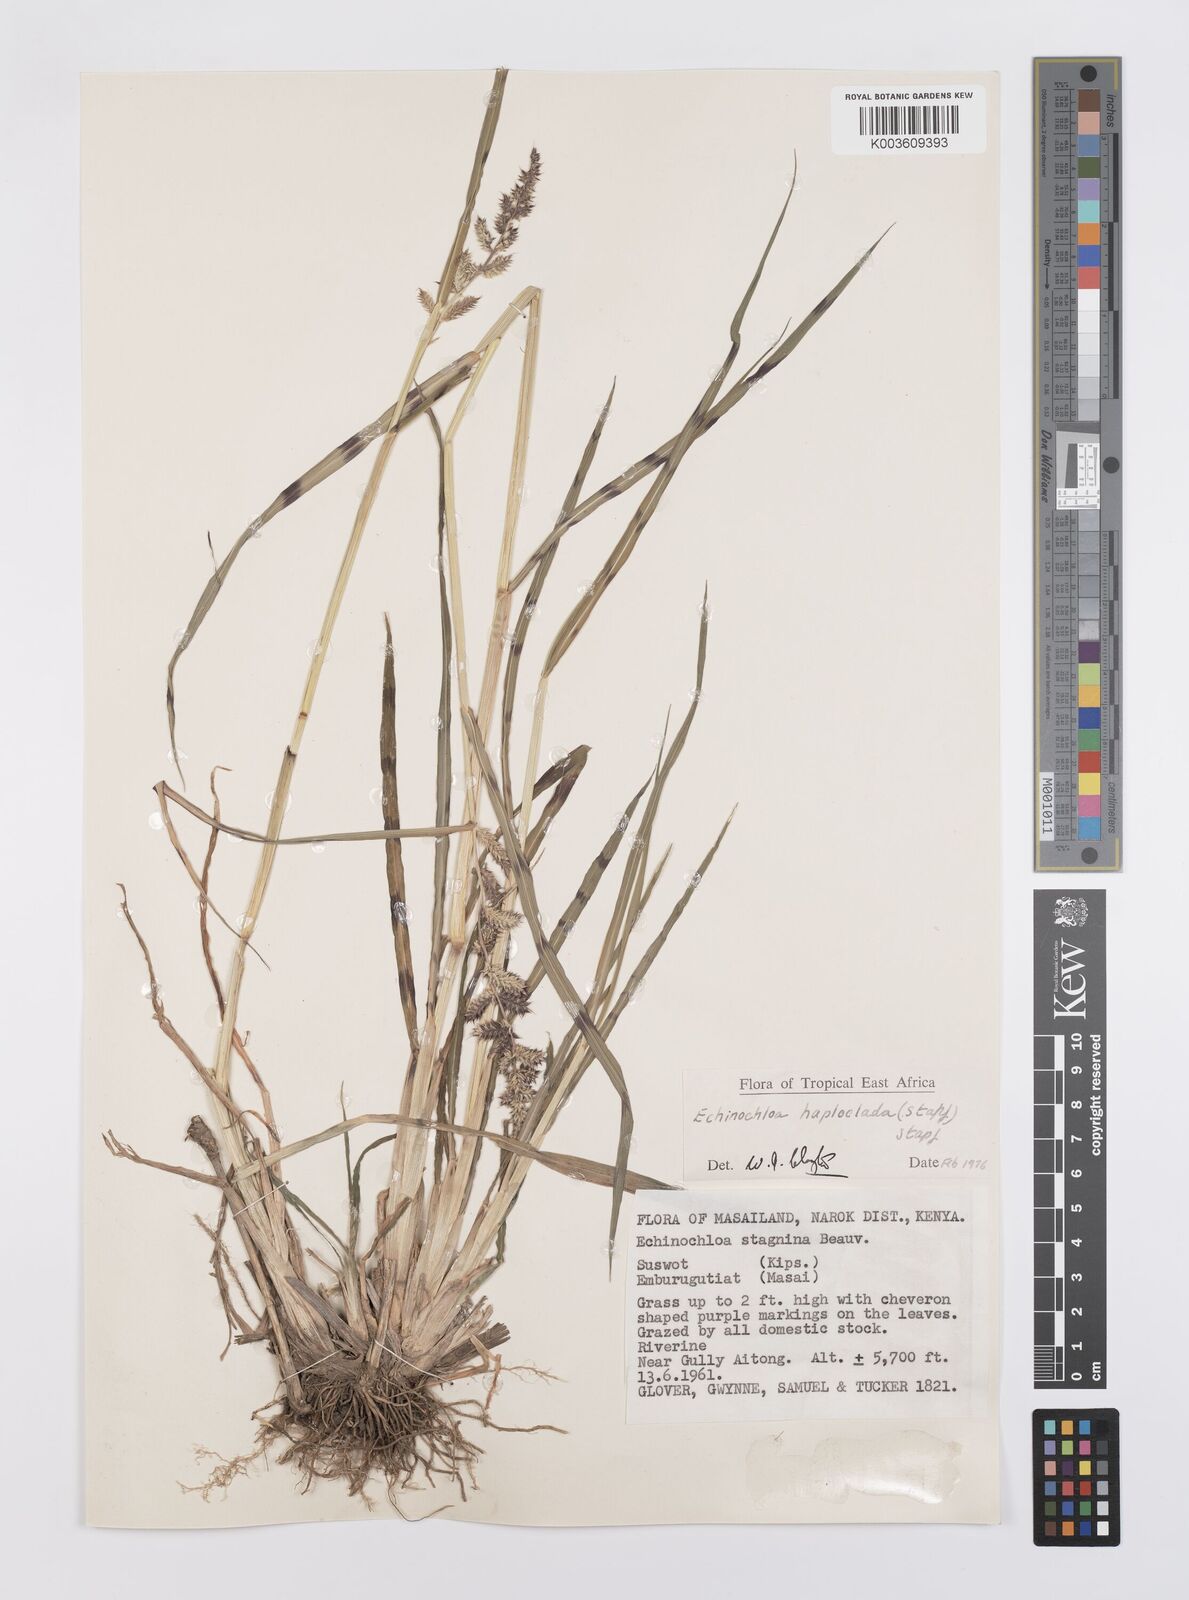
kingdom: Plantae
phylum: Tracheophyta
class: Liliopsida
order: Poales
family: Poaceae
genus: Echinochloa
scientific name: Echinochloa haploclada
